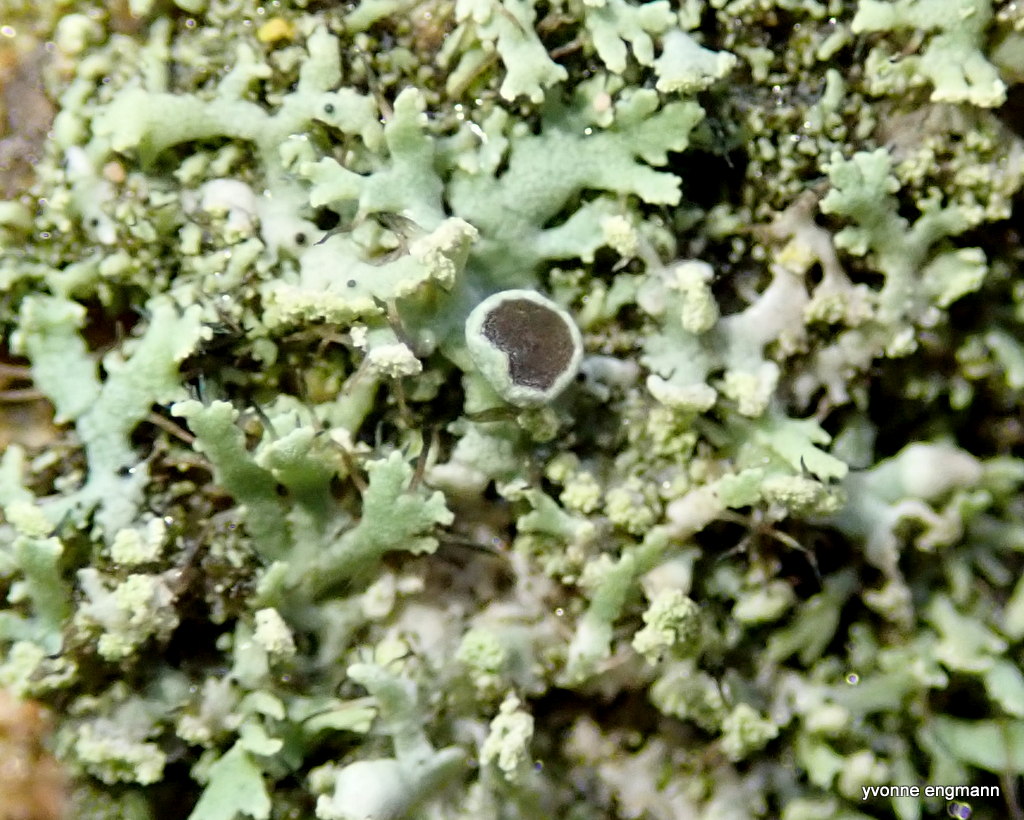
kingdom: Fungi
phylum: Ascomycota
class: Lecanoromycetes
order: Caliciales
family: Physciaceae
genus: Physcia
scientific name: Physcia tenella
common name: spæd rosetlav
